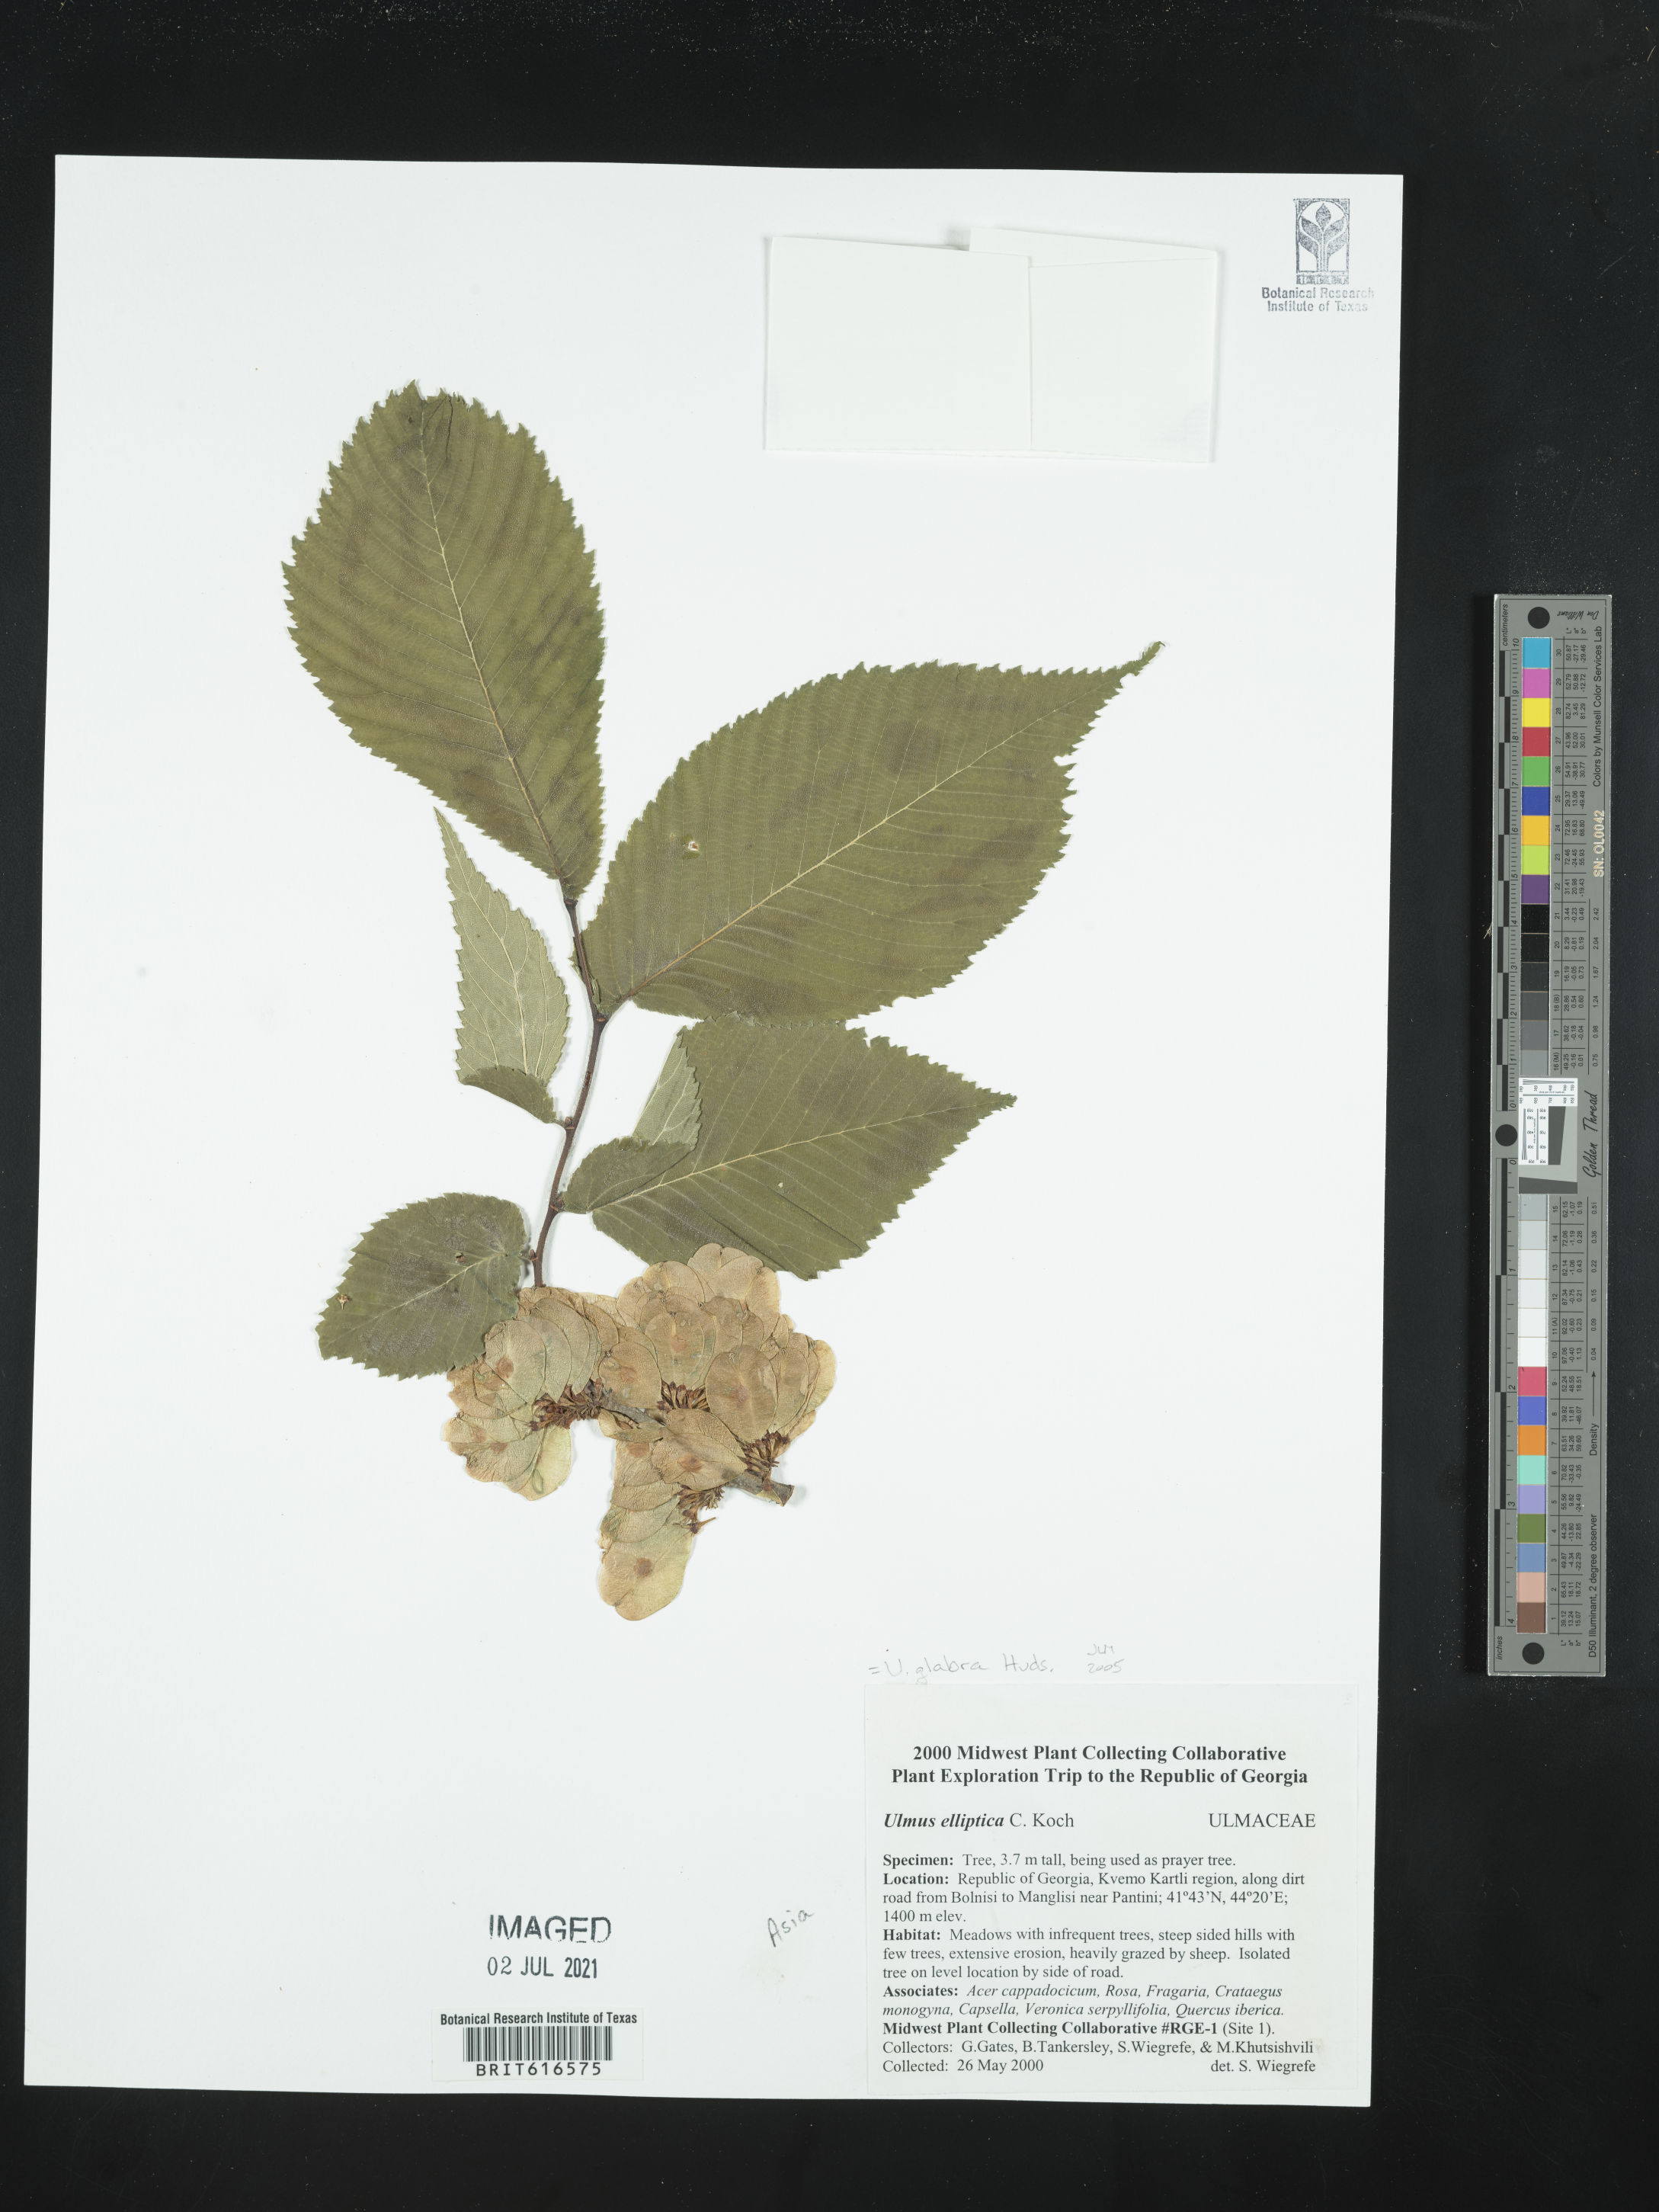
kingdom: Plantae
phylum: Tracheophyta
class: Magnoliopsida
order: Rosales
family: Ulmaceae
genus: Ulmus
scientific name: Ulmus glabra
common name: Wych elm
